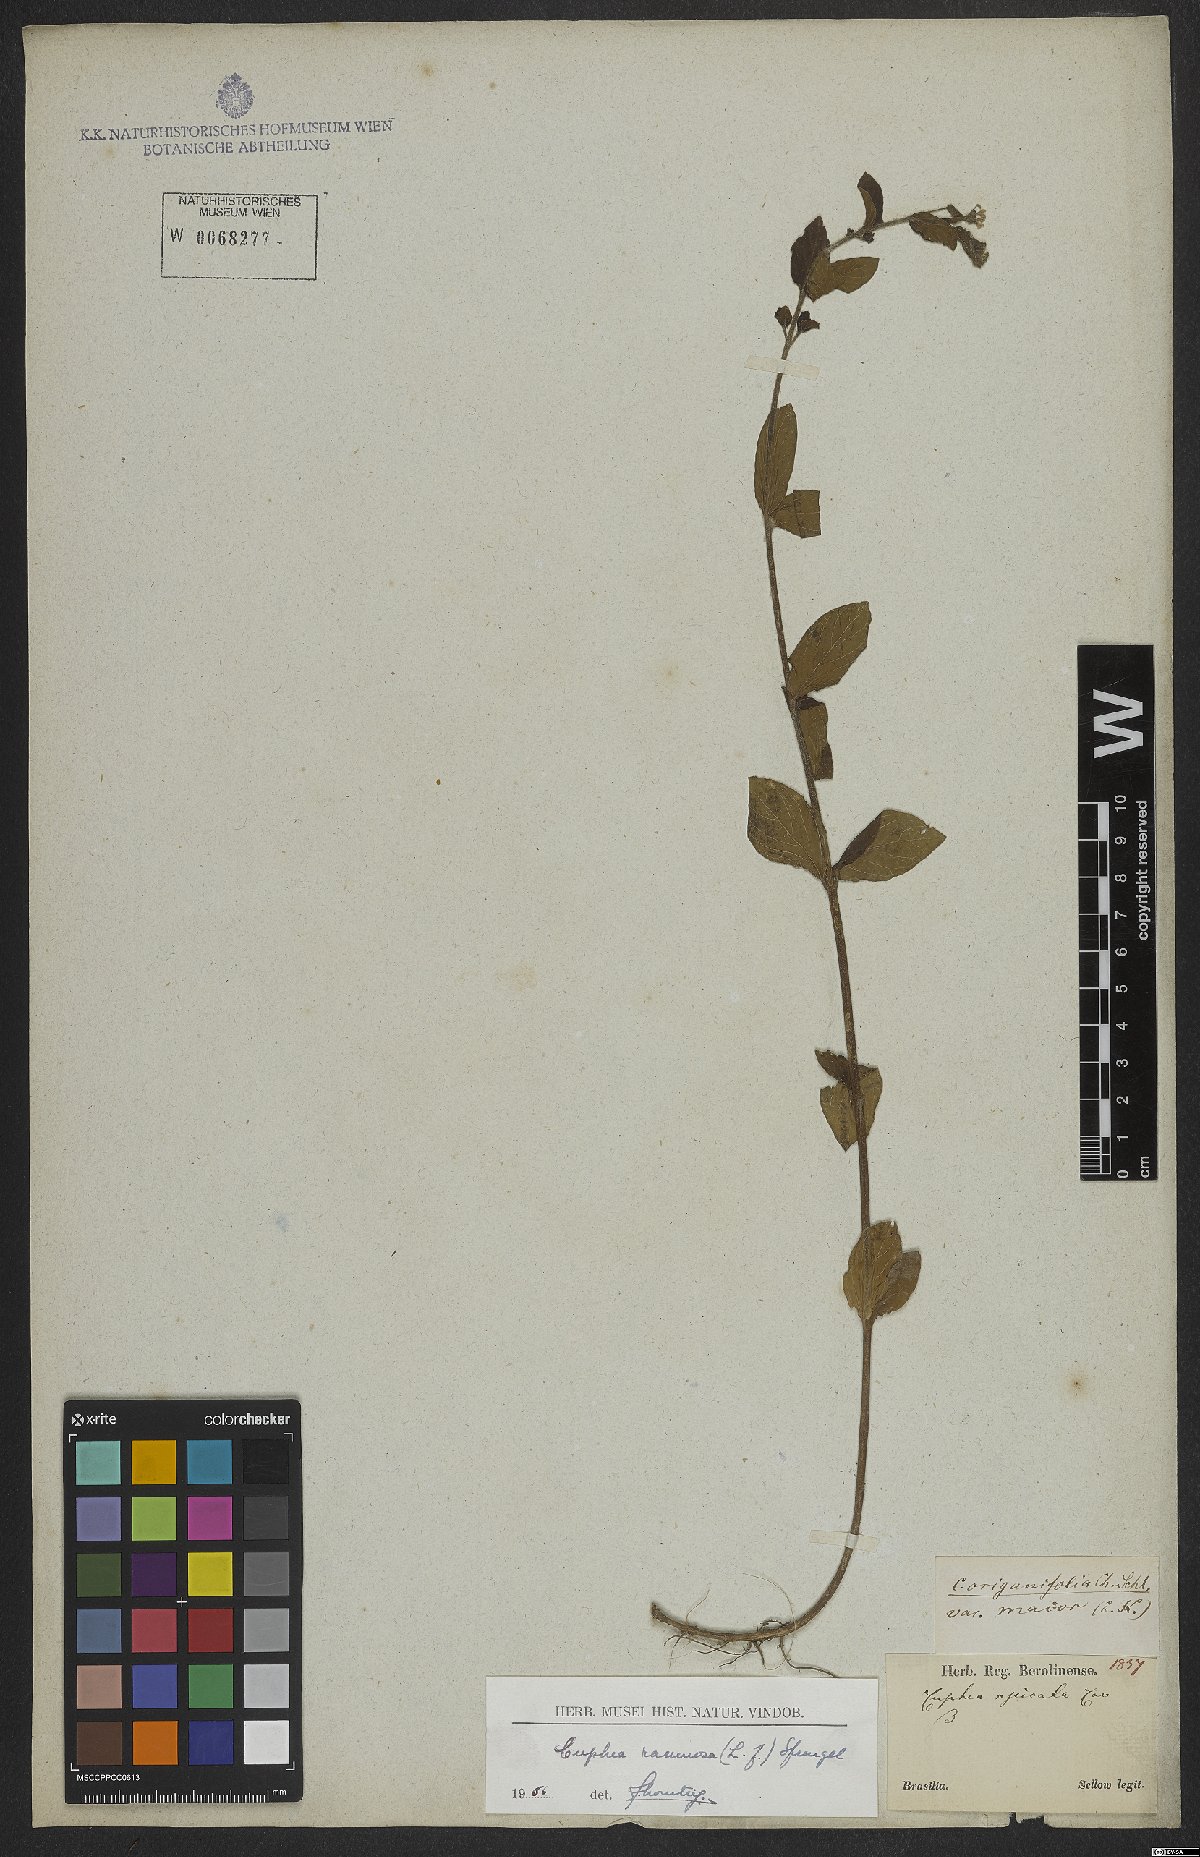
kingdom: Plantae
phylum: Tracheophyta
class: Magnoliopsida
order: Myrtales
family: Lythraceae
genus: Cuphea
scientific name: Cuphea racemosa
